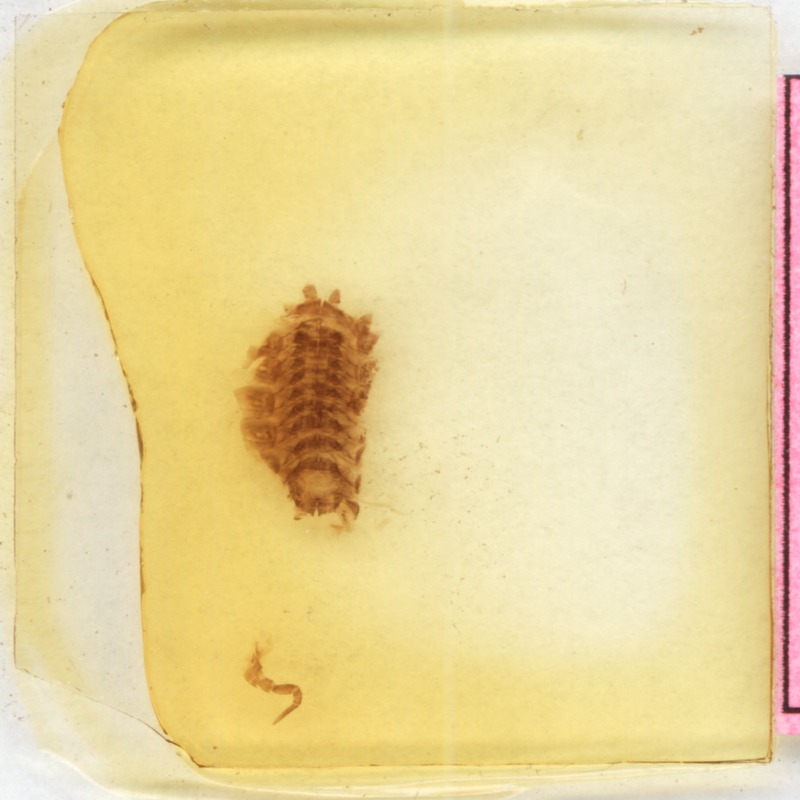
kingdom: Animalia
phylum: Arthropoda
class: Diplopoda
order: Glomerida
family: Glomeridae
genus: Glomeris
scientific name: Glomeris hexasticha
